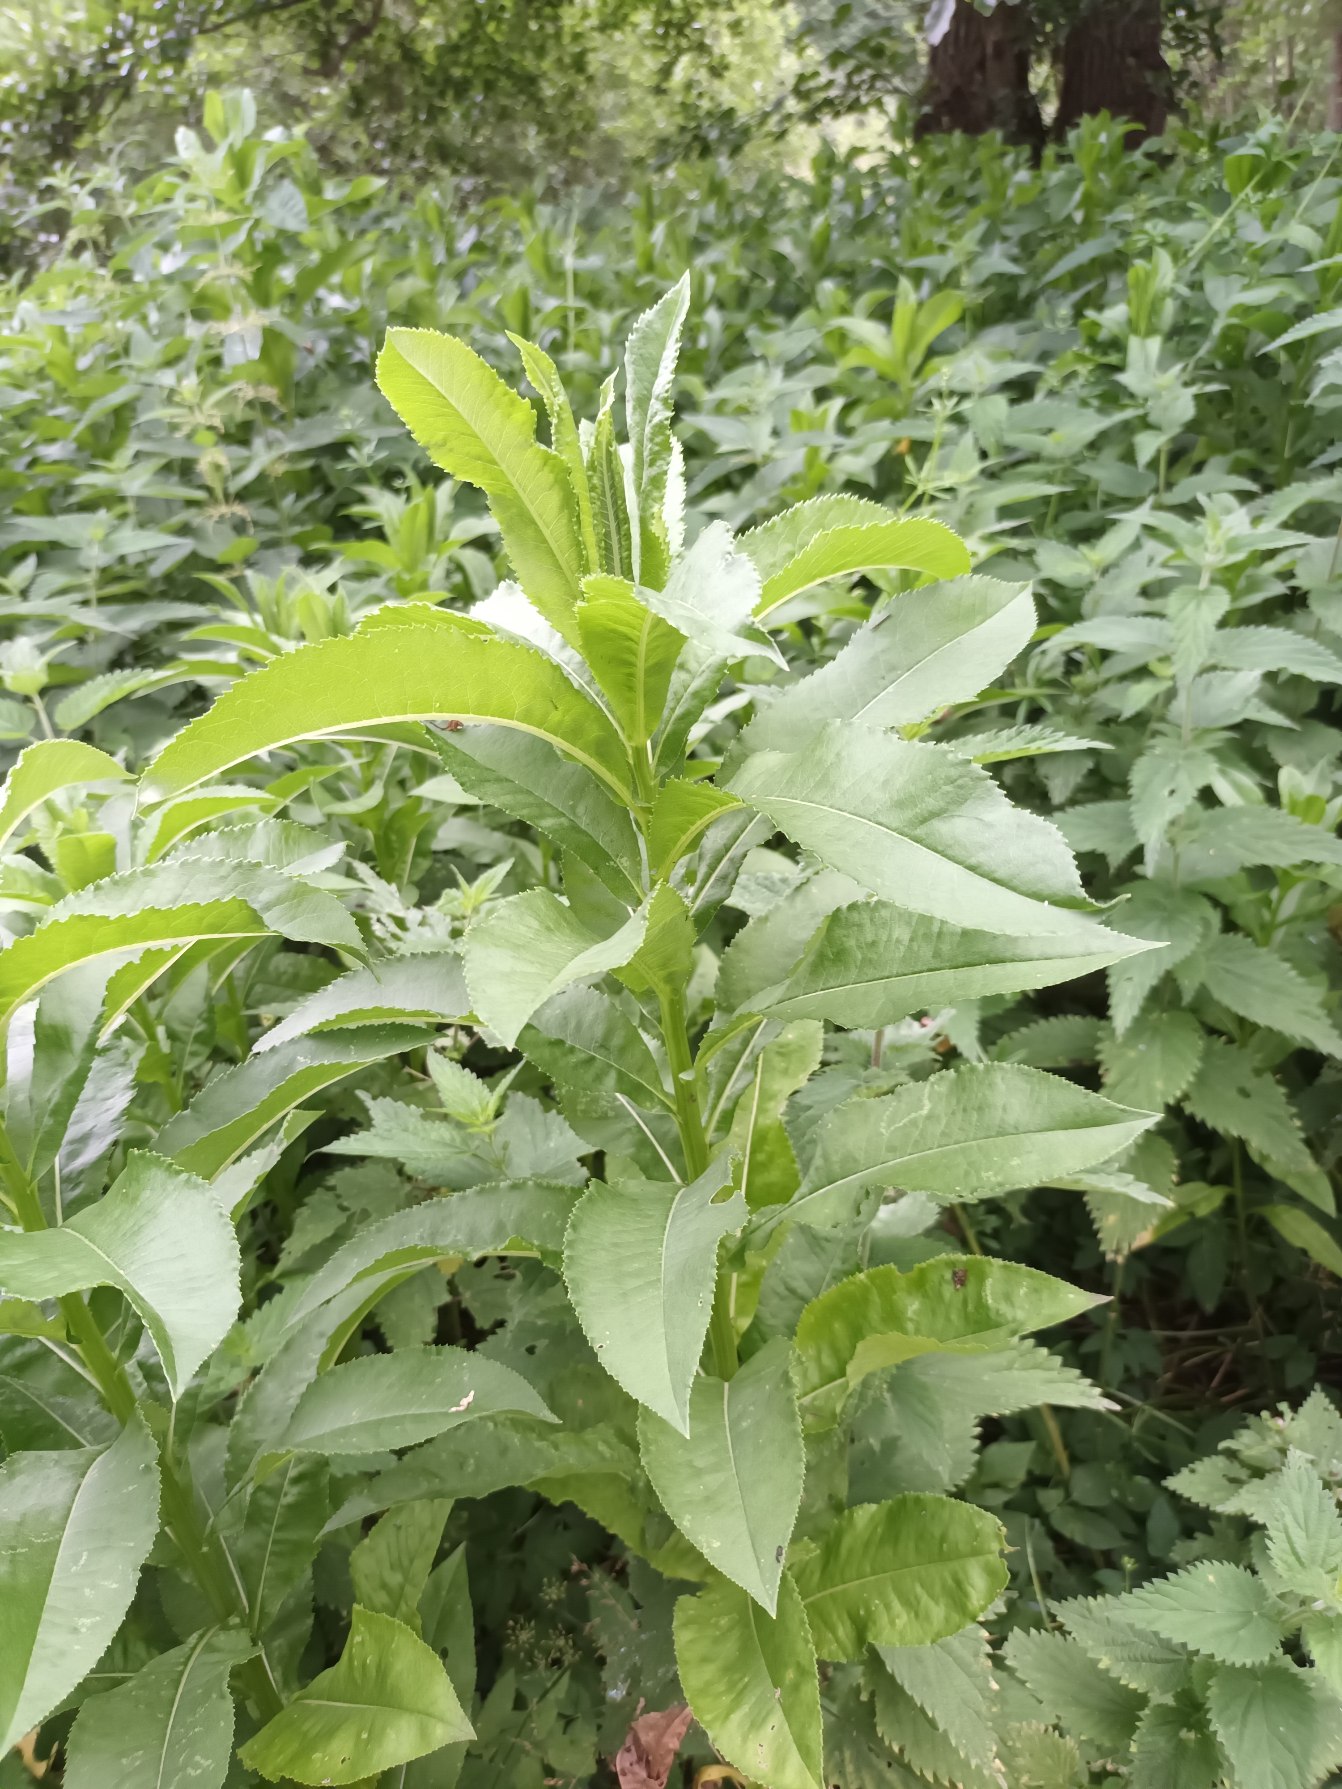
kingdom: Plantae
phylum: Tracheophyta
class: Magnoliopsida
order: Asterales
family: Asteraceae
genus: Senecio
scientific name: Senecio sarracenicus
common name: Saracenisk brandbæger
